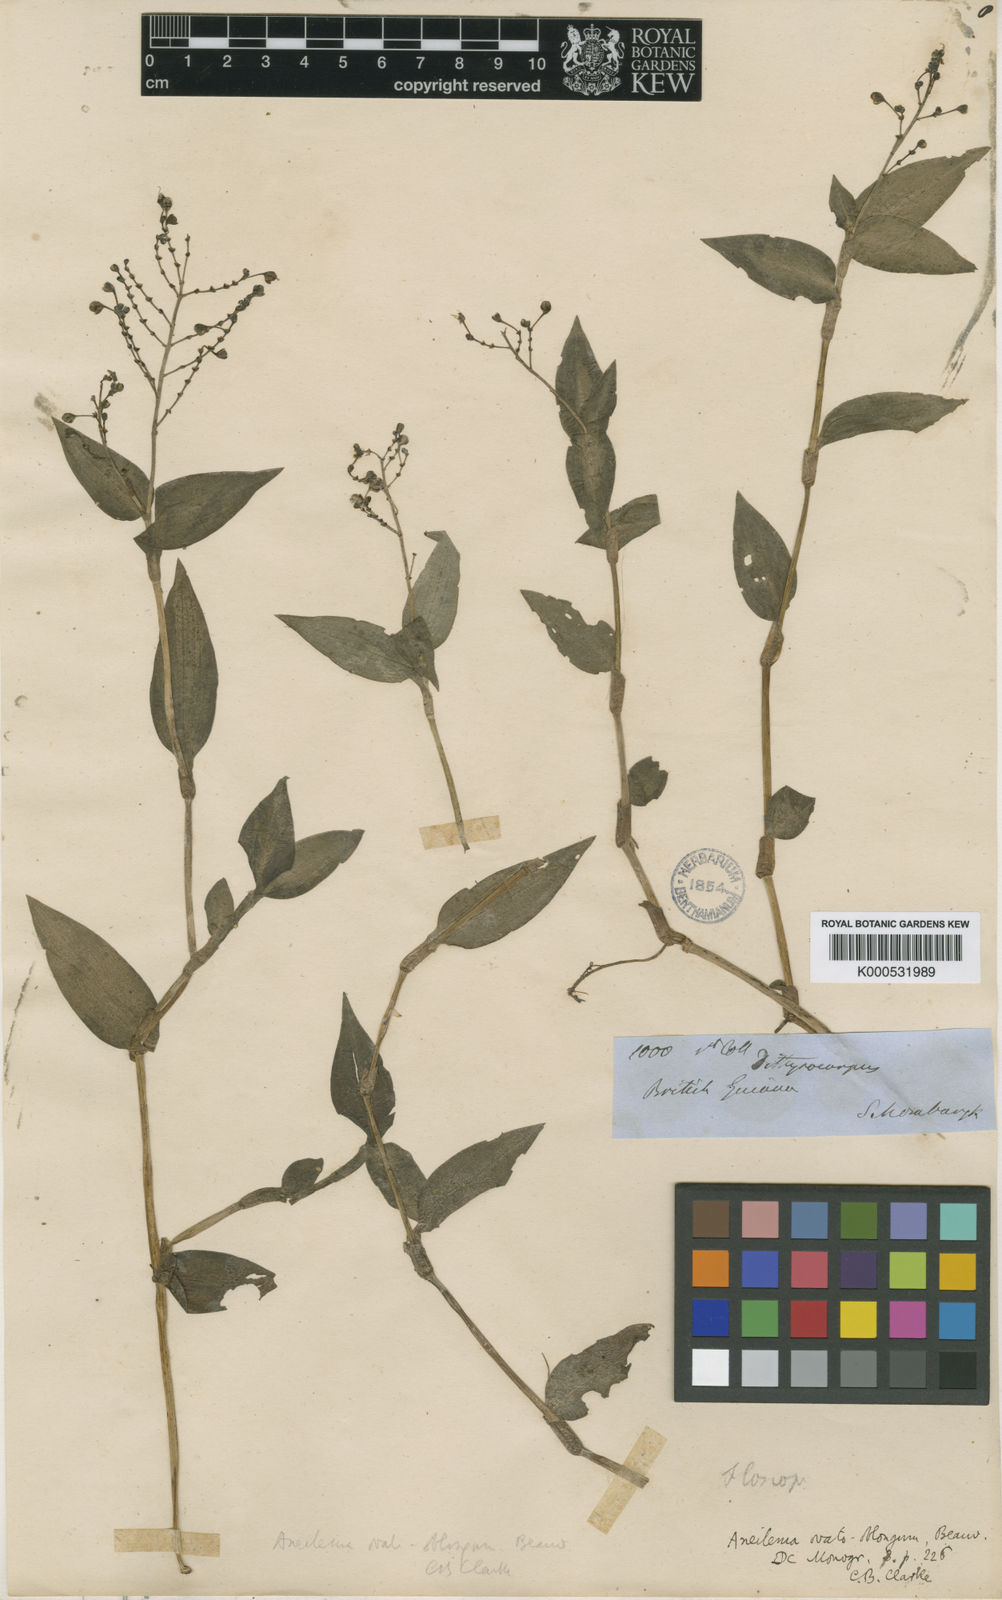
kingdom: Plantae
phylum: Tracheophyta
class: Liliopsida
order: Commelinales
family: Commelinaceae
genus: Aneilema
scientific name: Aneilema umbrosum
